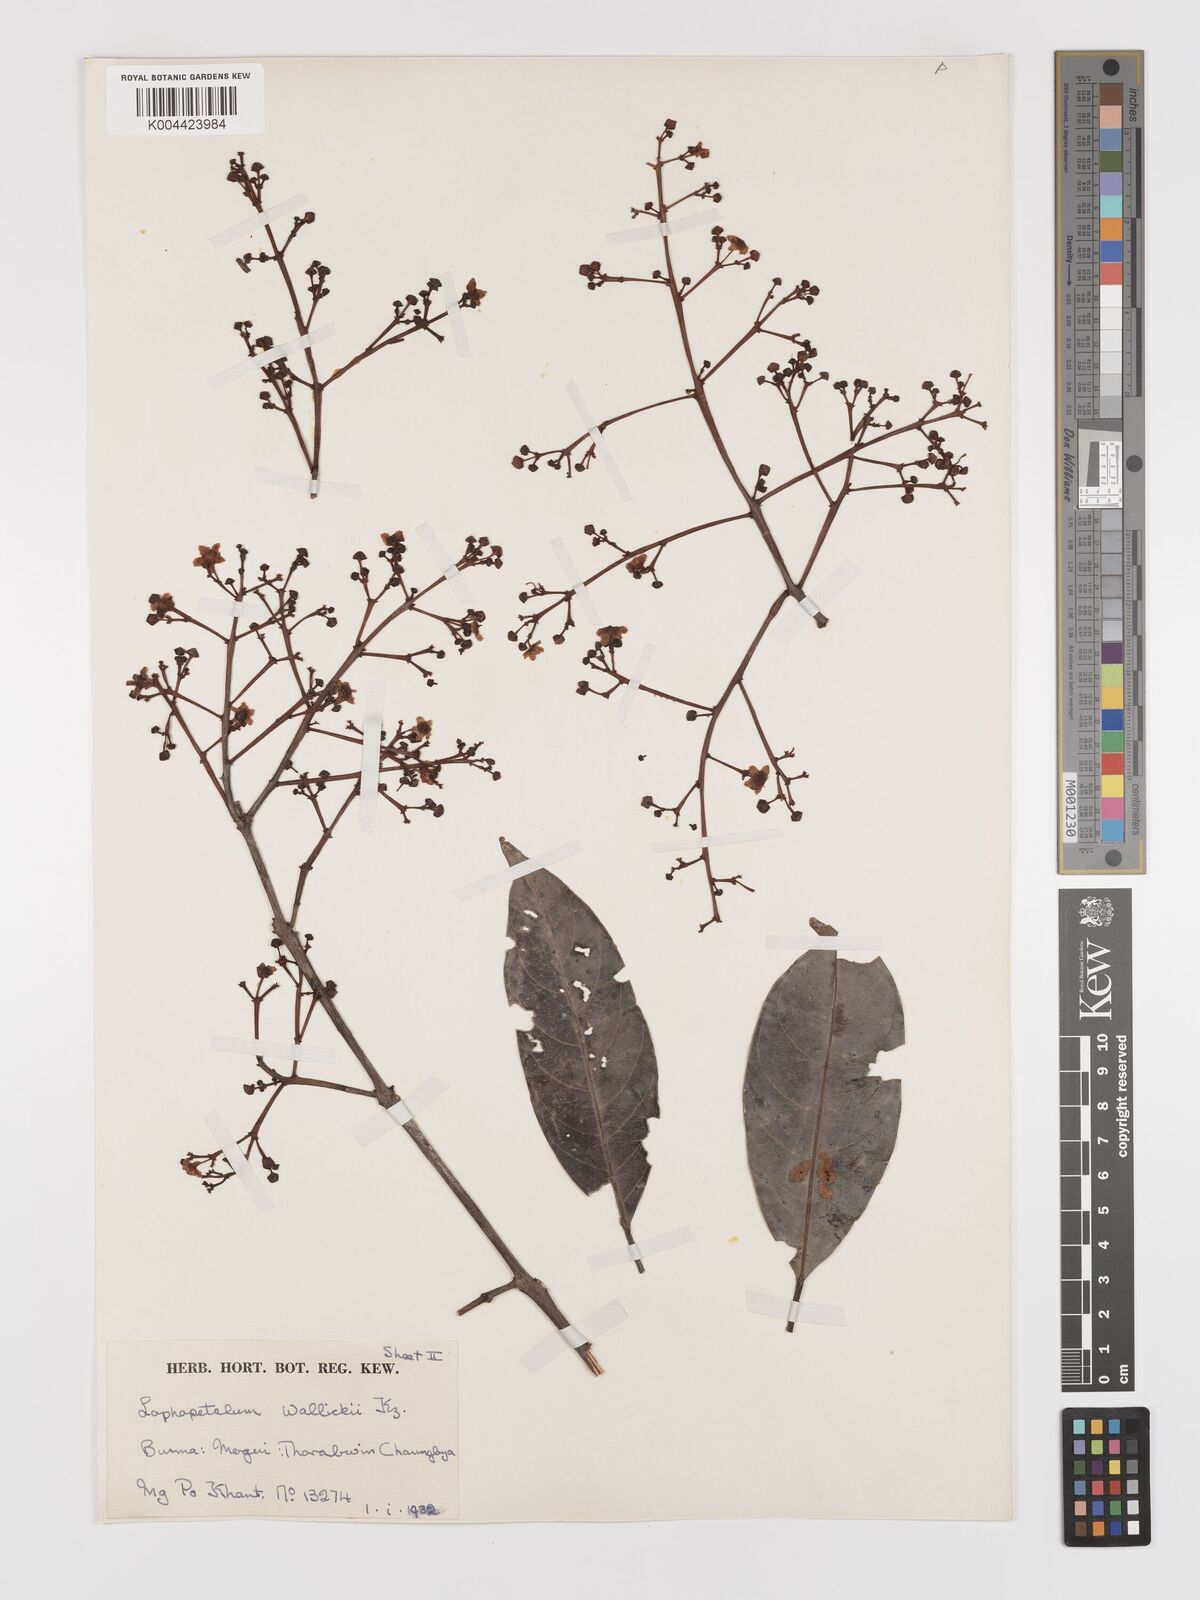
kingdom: Plantae
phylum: Tracheophyta
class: Magnoliopsida
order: Celastrales
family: Celastraceae
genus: Lophopetalum
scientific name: Lophopetalum wallichii
